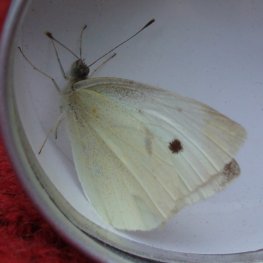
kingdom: Animalia
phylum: Arthropoda
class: Insecta
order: Lepidoptera
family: Pieridae
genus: Pieris
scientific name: Pieris rapae
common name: Cabbage White
